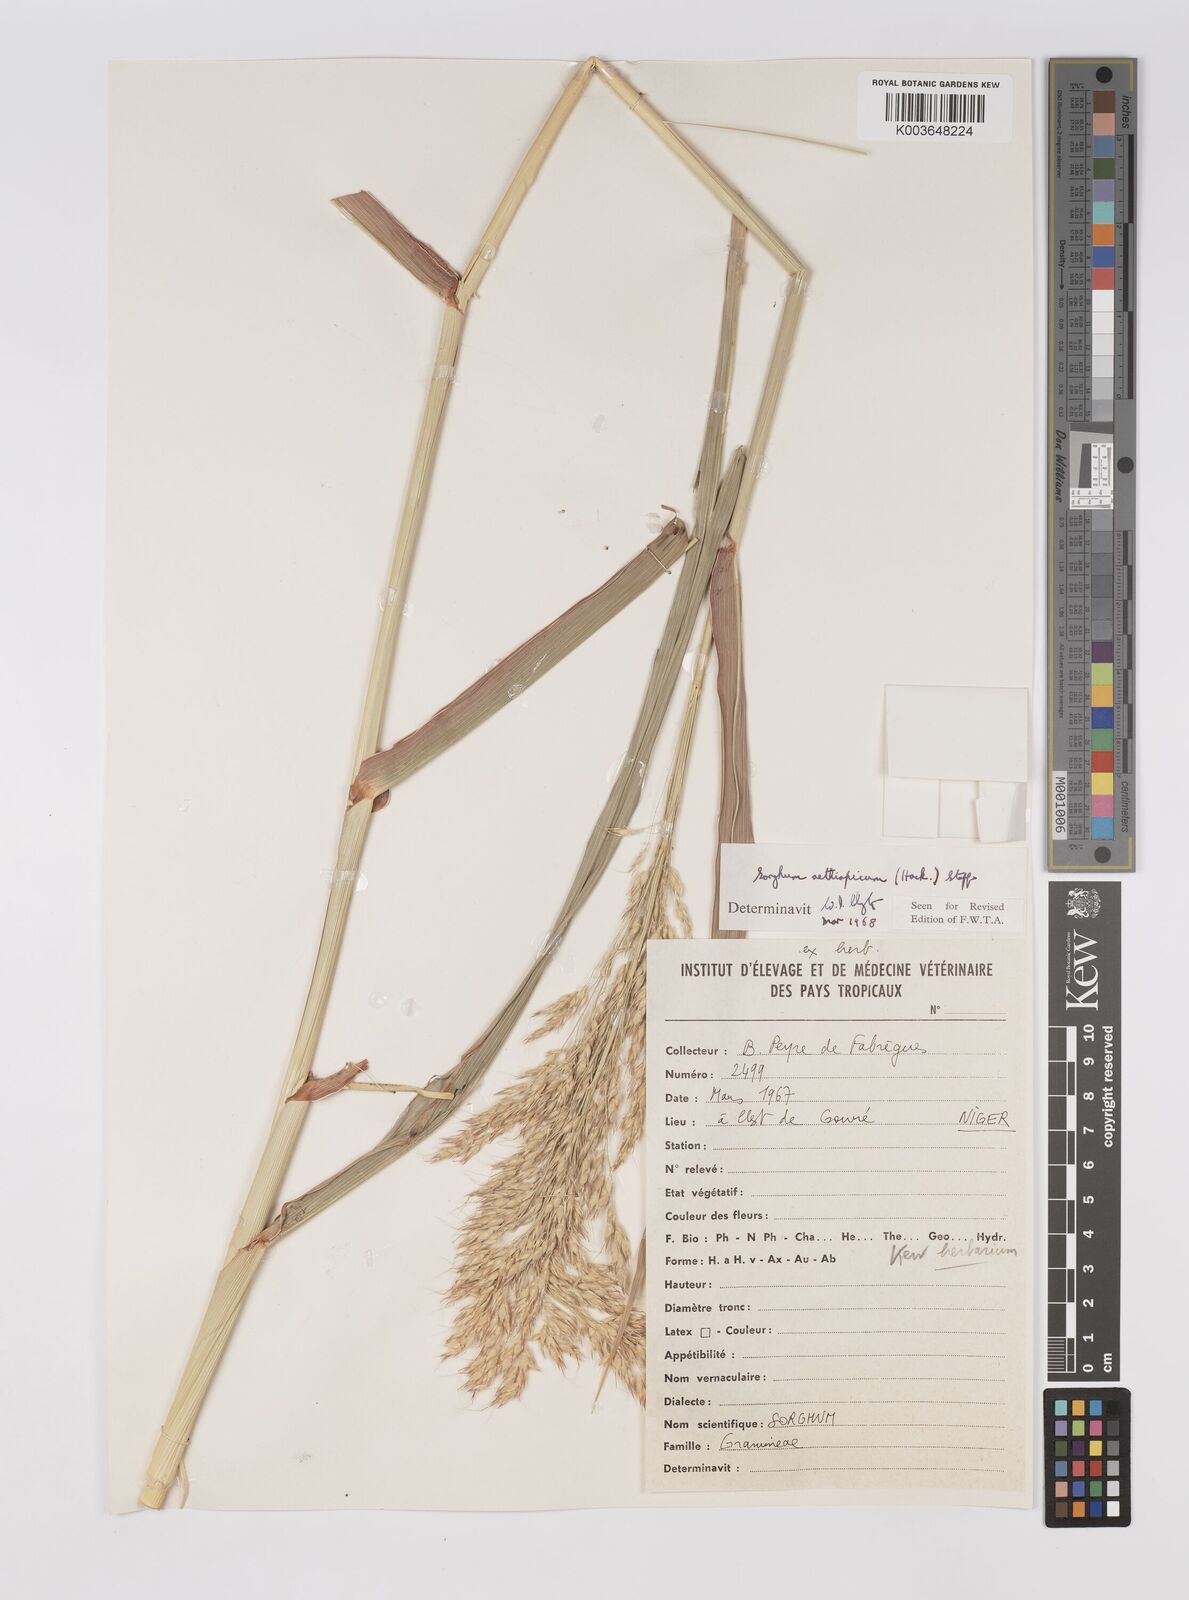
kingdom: Plantae
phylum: Tracheophyta
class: Liliopsida
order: Poales
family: Poaceae
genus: Sorghum
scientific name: Sorghum arundinaceum
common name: Sorghum
